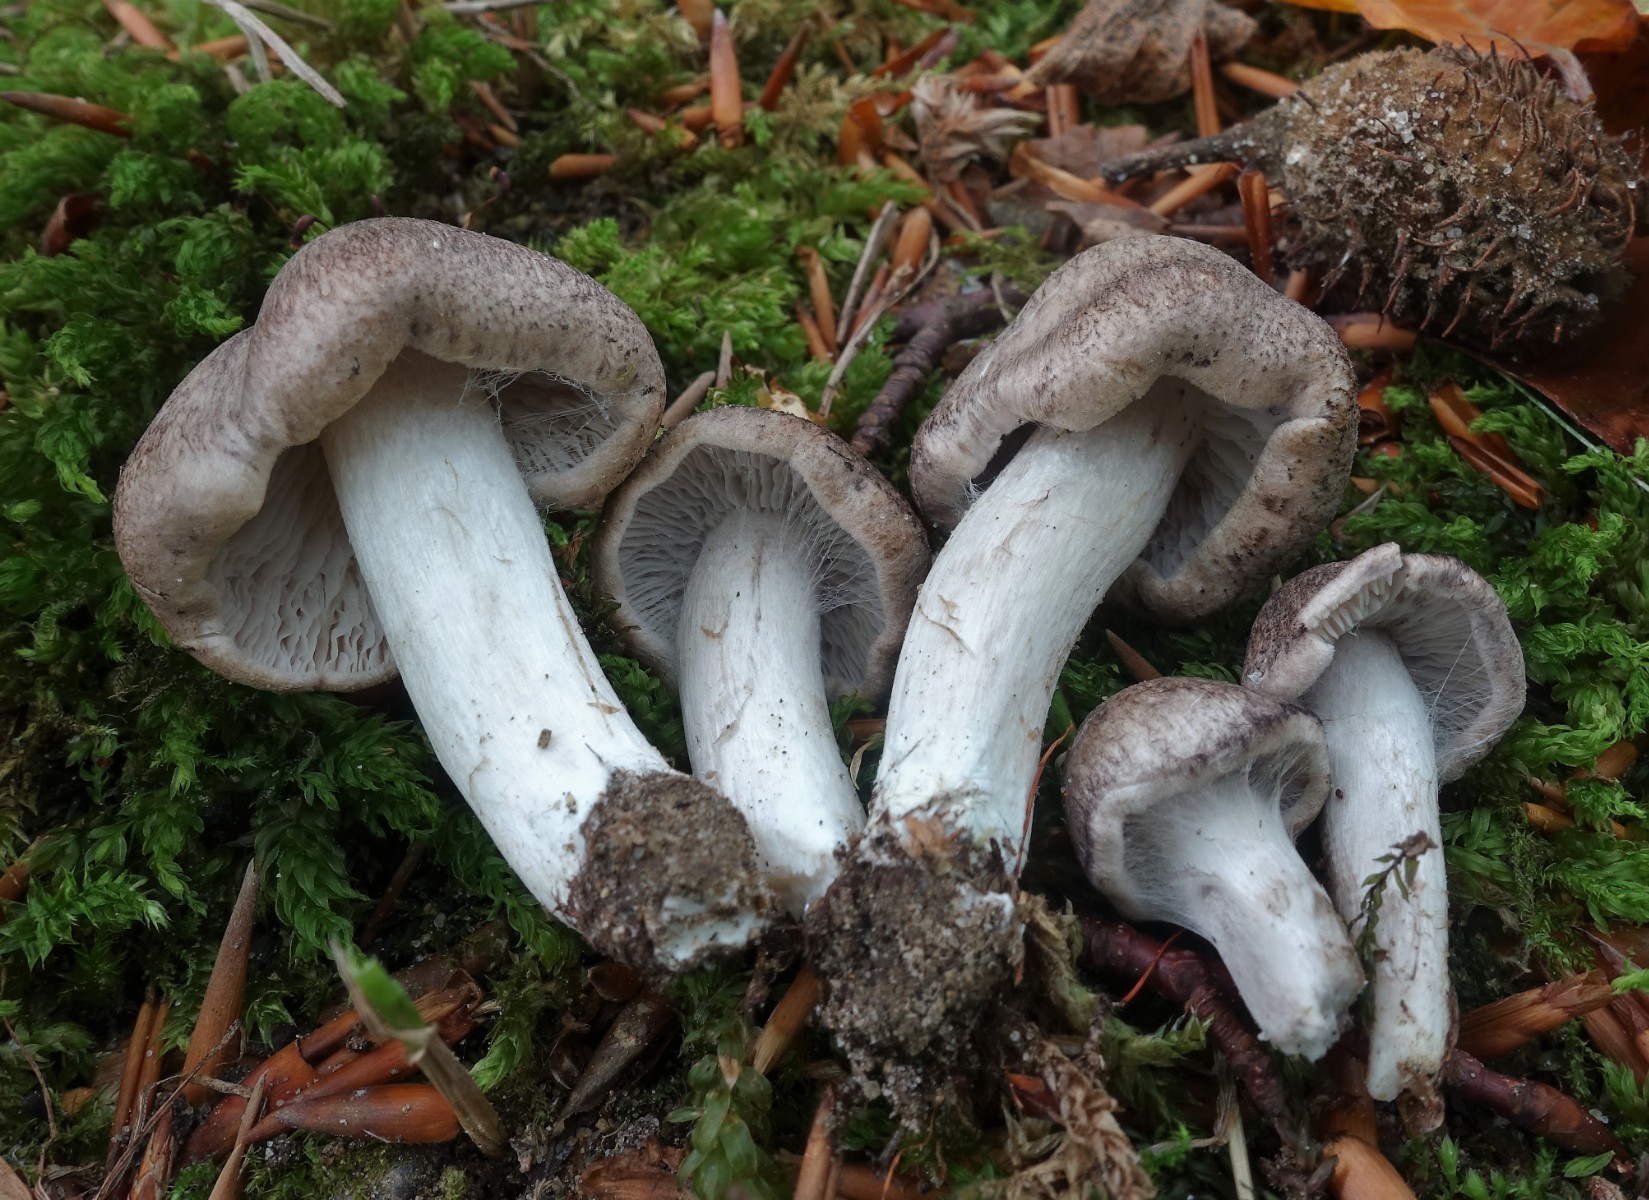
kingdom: Fungi
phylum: Basidiomycota
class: Agaricomycetes
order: Agaricales
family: Tricholomataceae
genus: Tricholoma
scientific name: Tricholoma argyraceum
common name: slør-ridderhat
